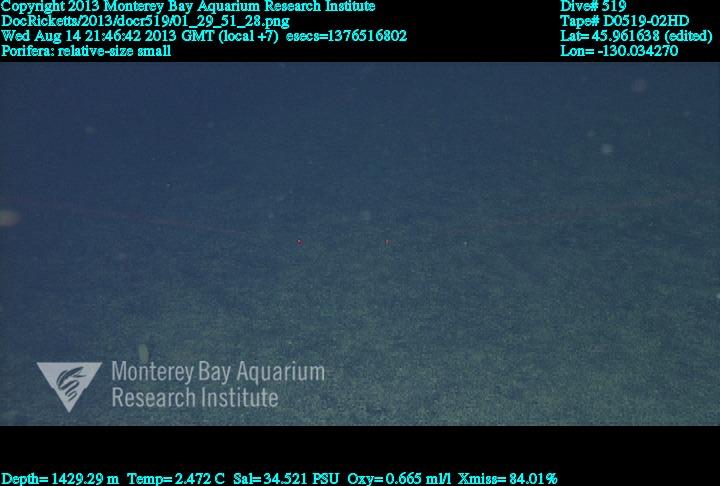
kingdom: Animalia
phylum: Porifera
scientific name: Porifera
